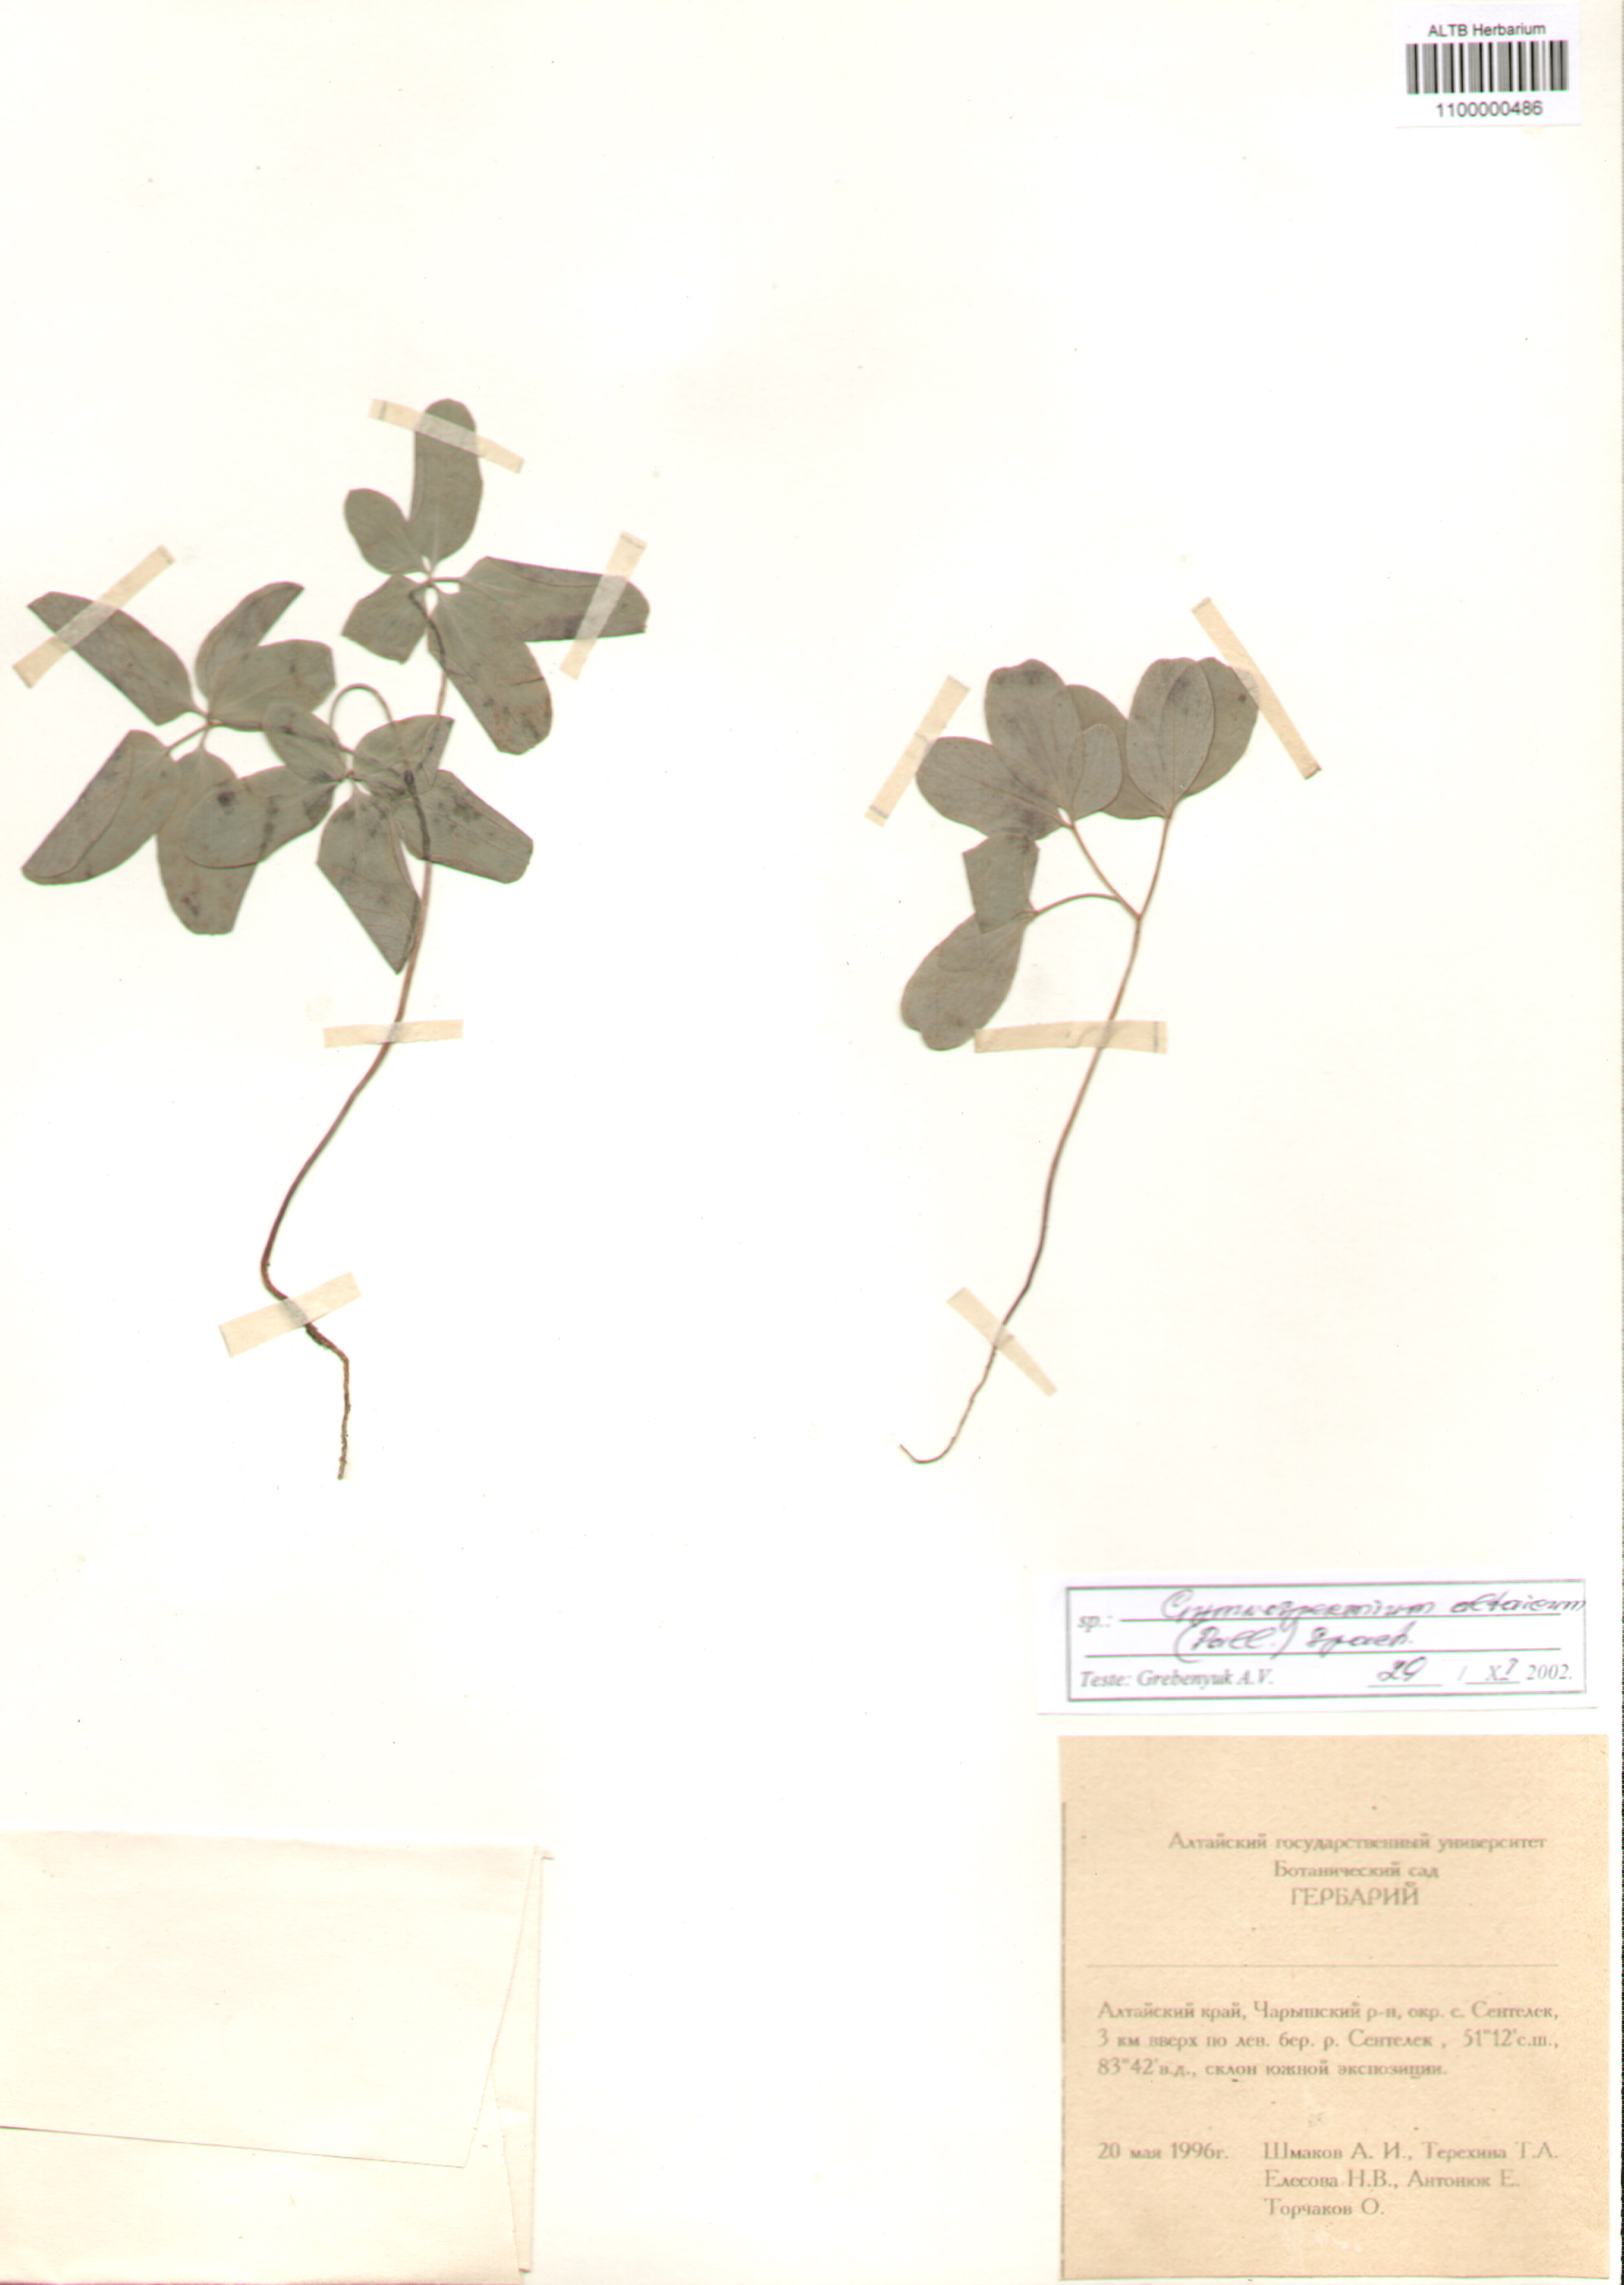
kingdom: Plantae
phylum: Tracheophyta
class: Magnoliopsida
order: Ranunculales
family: Berberidaceae
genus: Gymnospermium
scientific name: Gymnospermium altaicum
